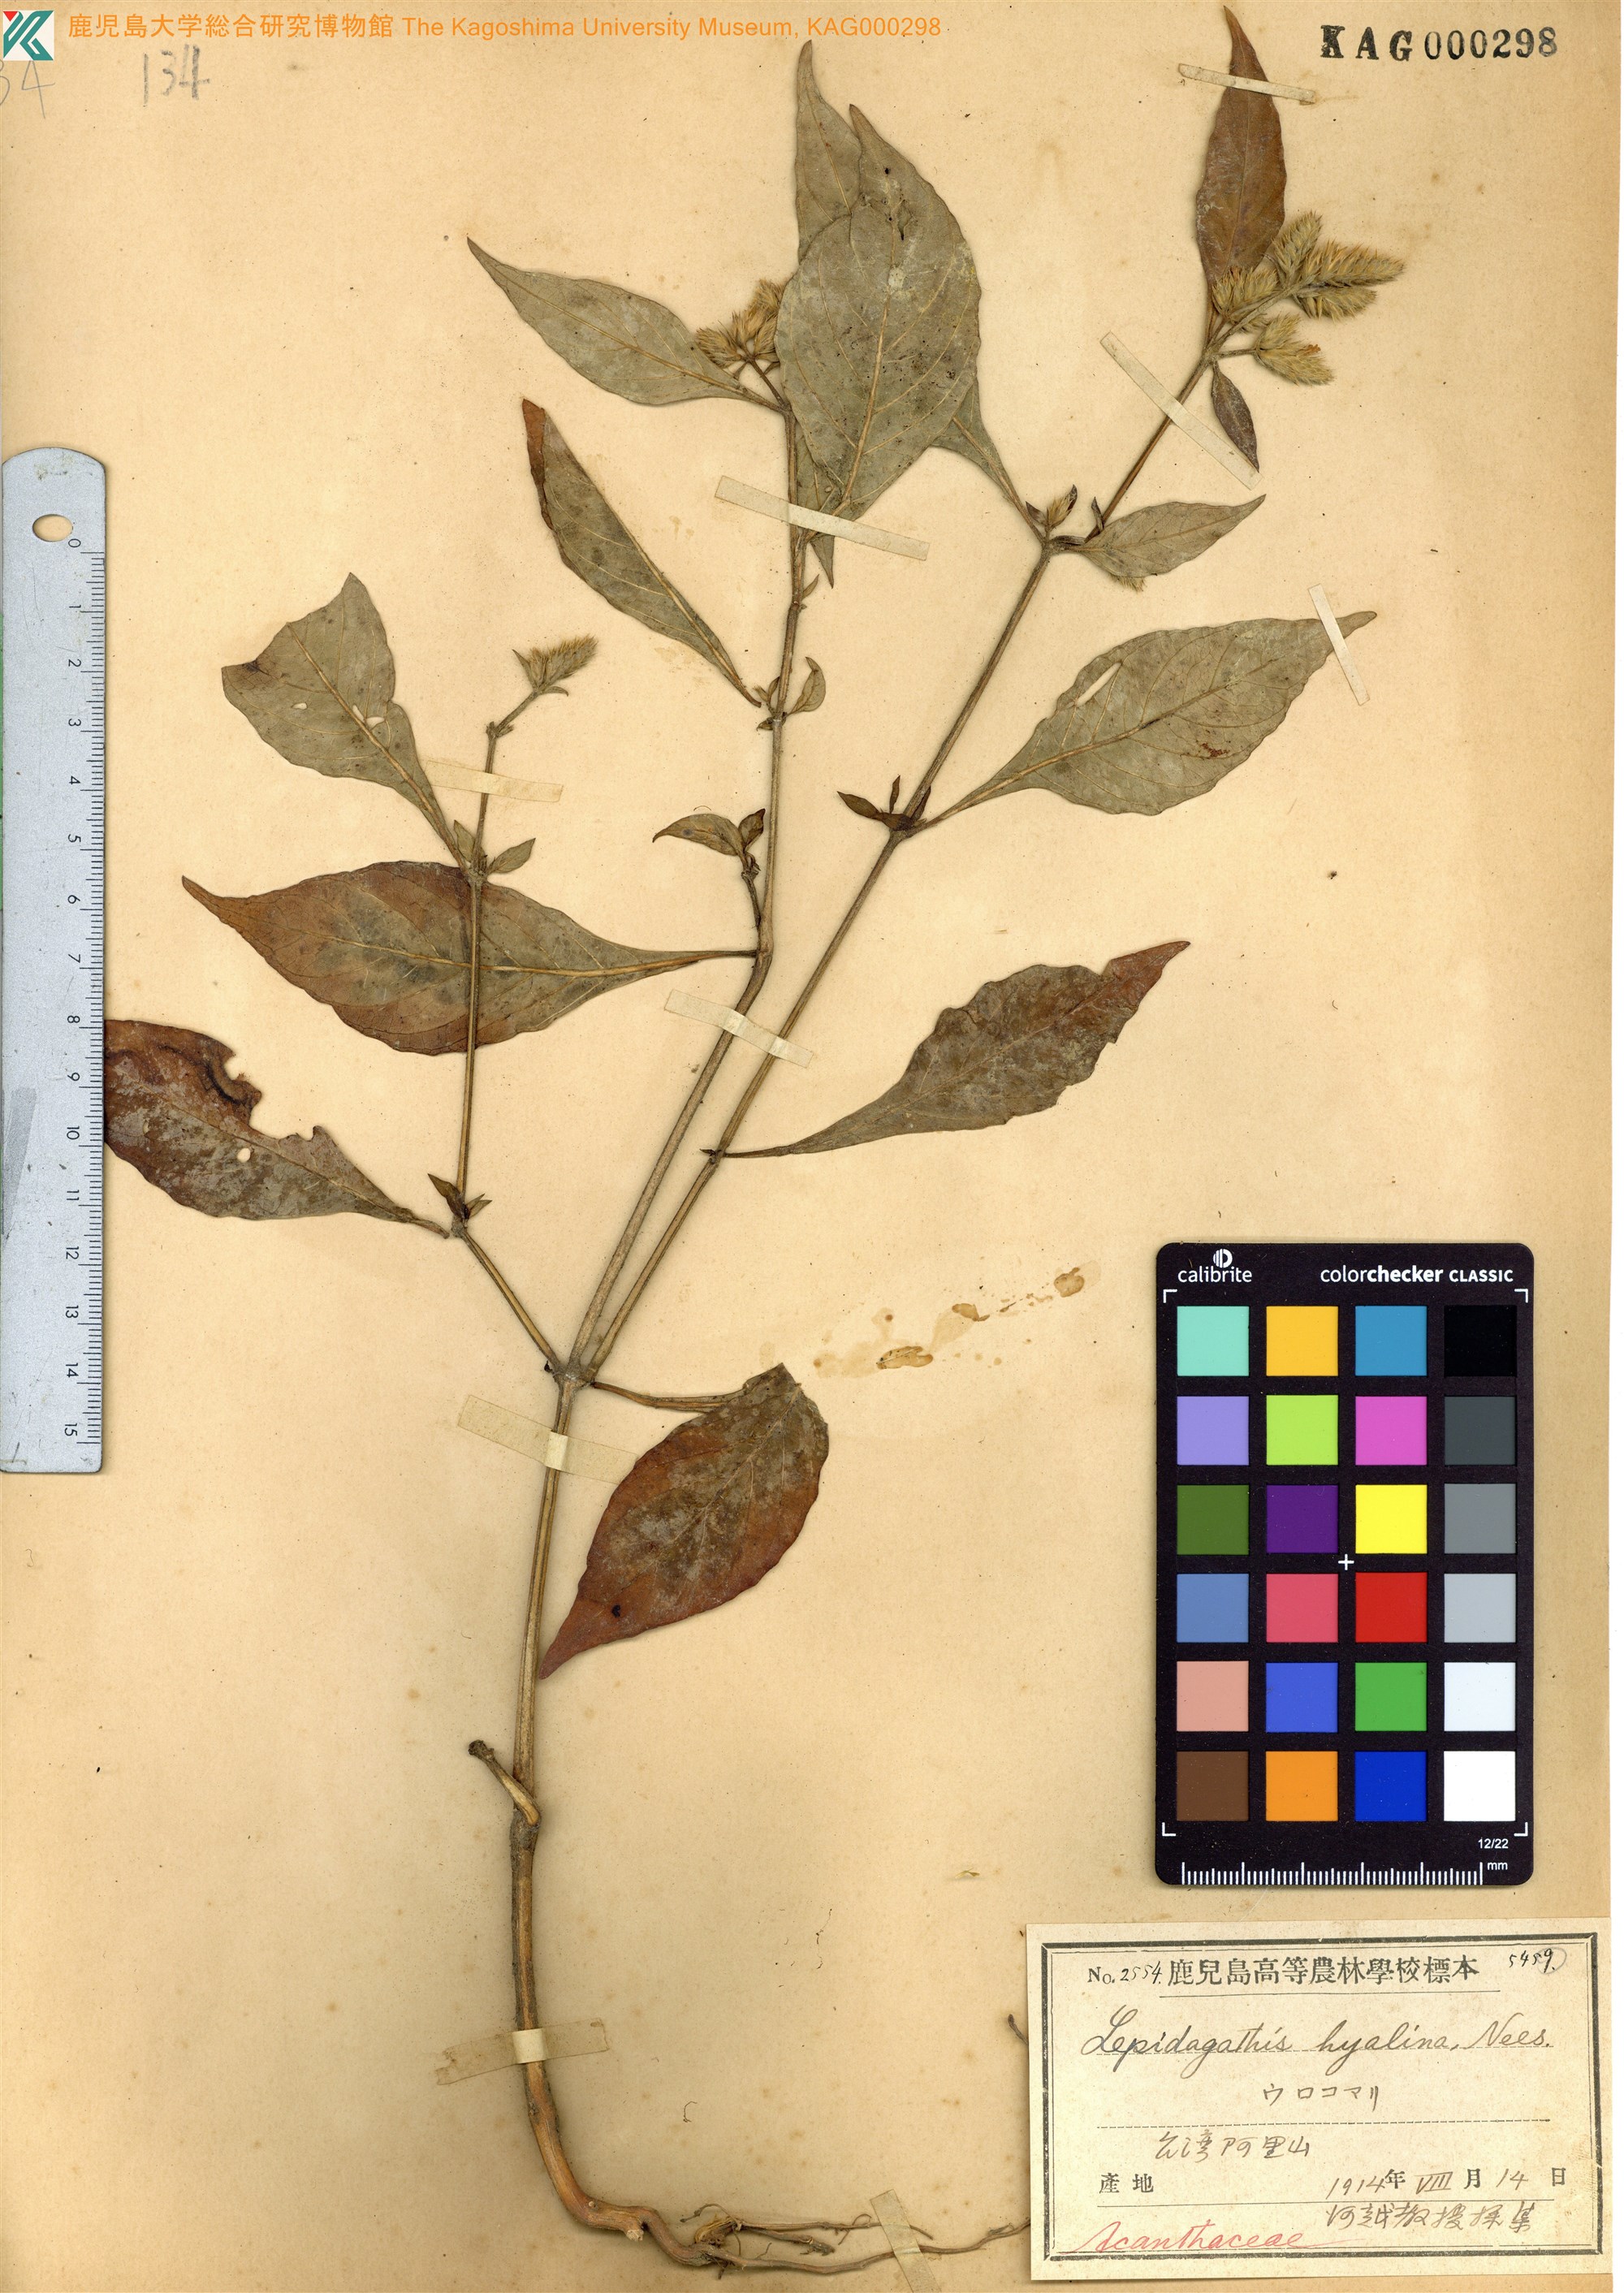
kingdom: Plantae
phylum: Tracheophyta
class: Magnoliopsida
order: Lamiales
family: Acanthaceae
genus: Lepidagathis
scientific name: Lepidagathis formosensis
